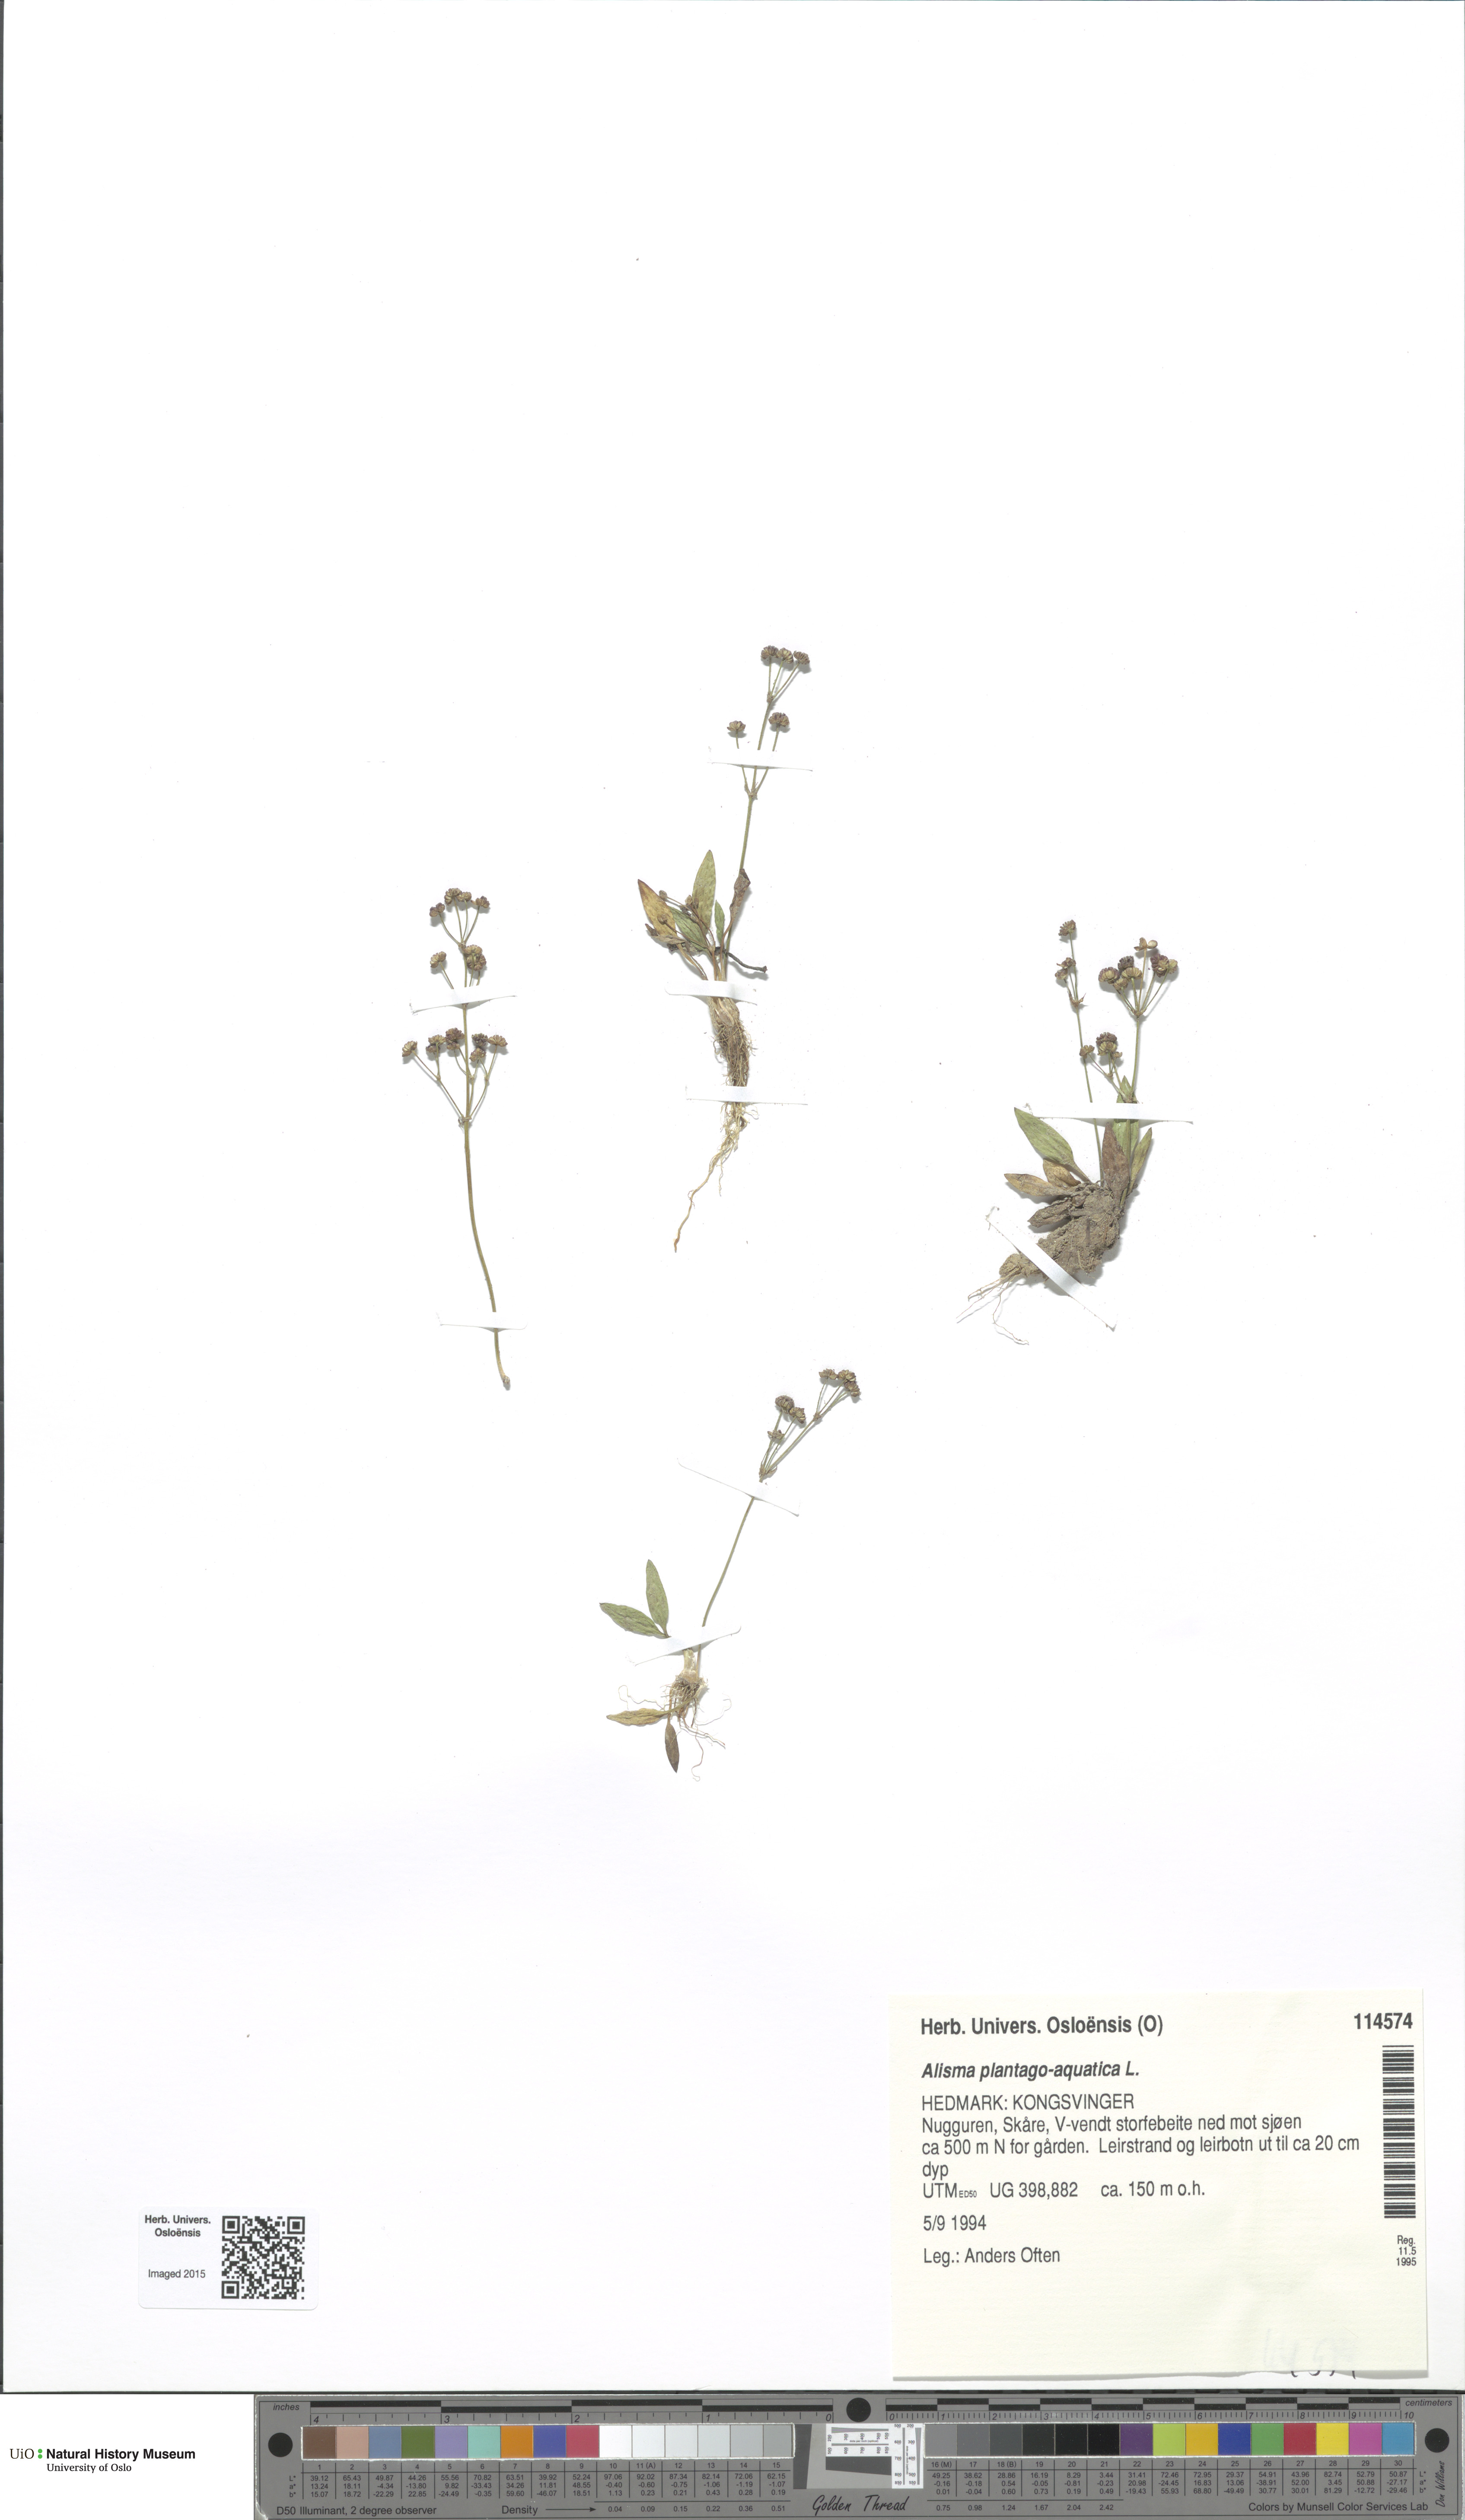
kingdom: Plantae
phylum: Tracheophyta
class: Liliopsida
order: Alismatales
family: Alismataceae
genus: Alisma
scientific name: Alisma plantago-aquatica
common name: Water-plantain
